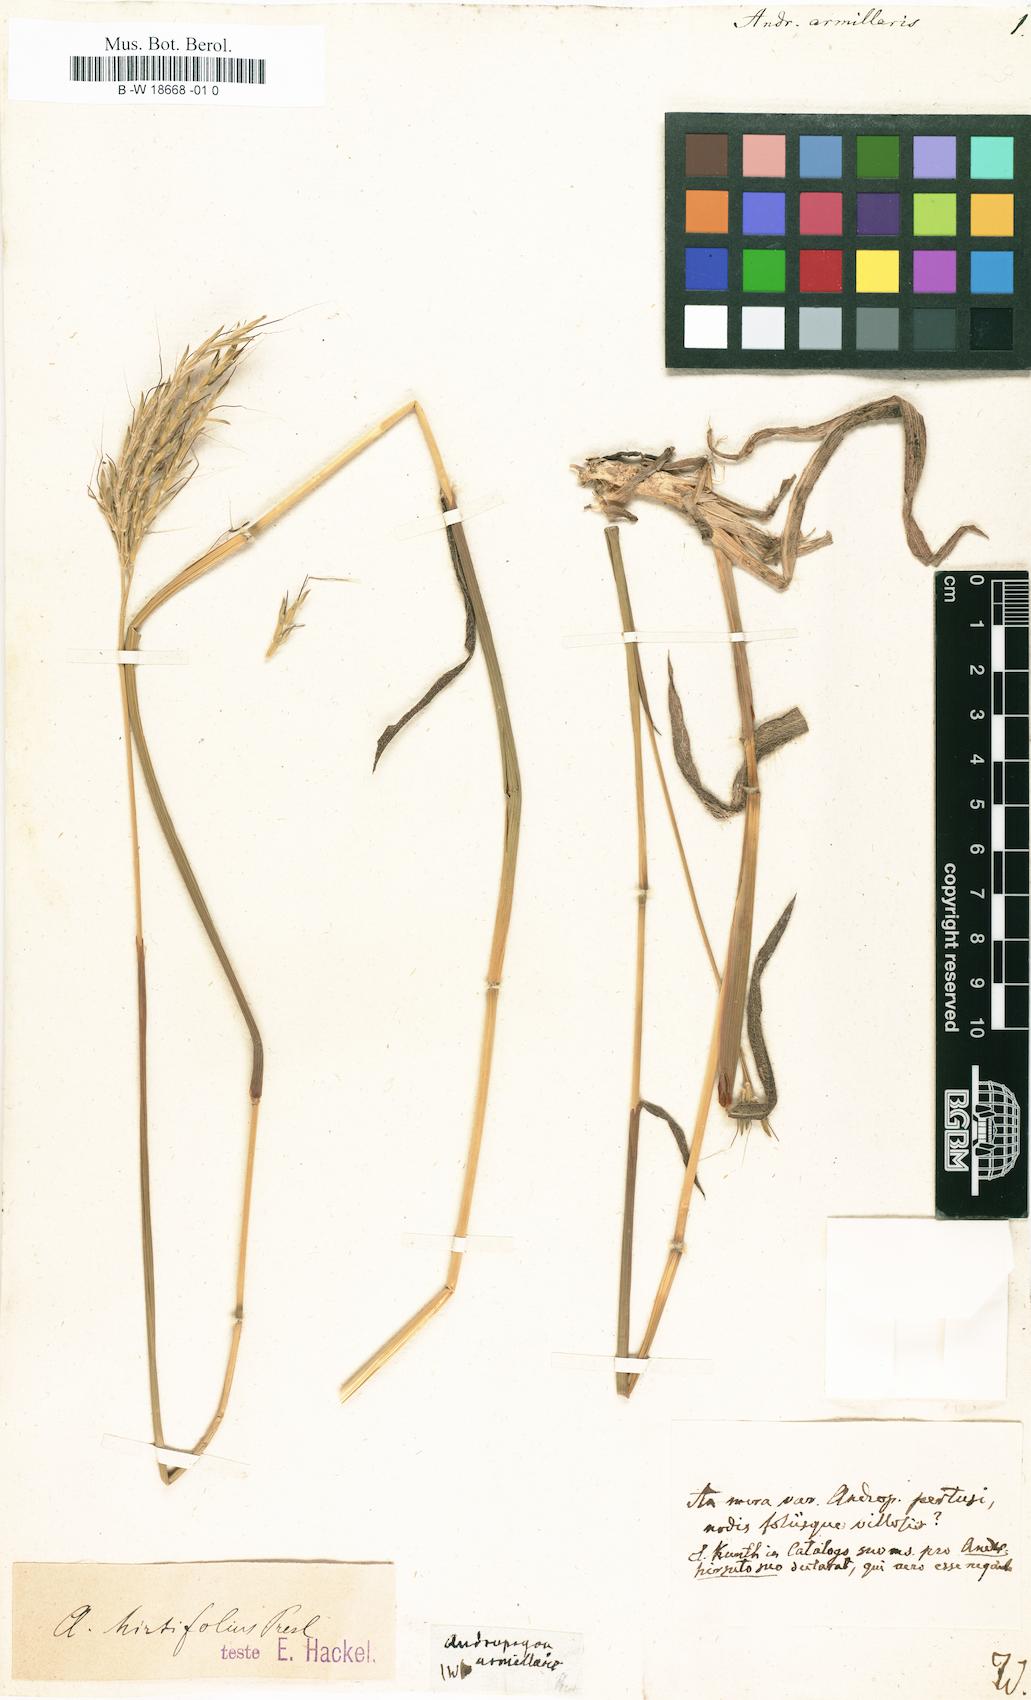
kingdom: Plantae
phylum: Tracheophyta
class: Liliopsida
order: Poales
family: Poaceae
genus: Bothriochloa
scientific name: Bothriochloa pertusa
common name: Pitted beardgrass
